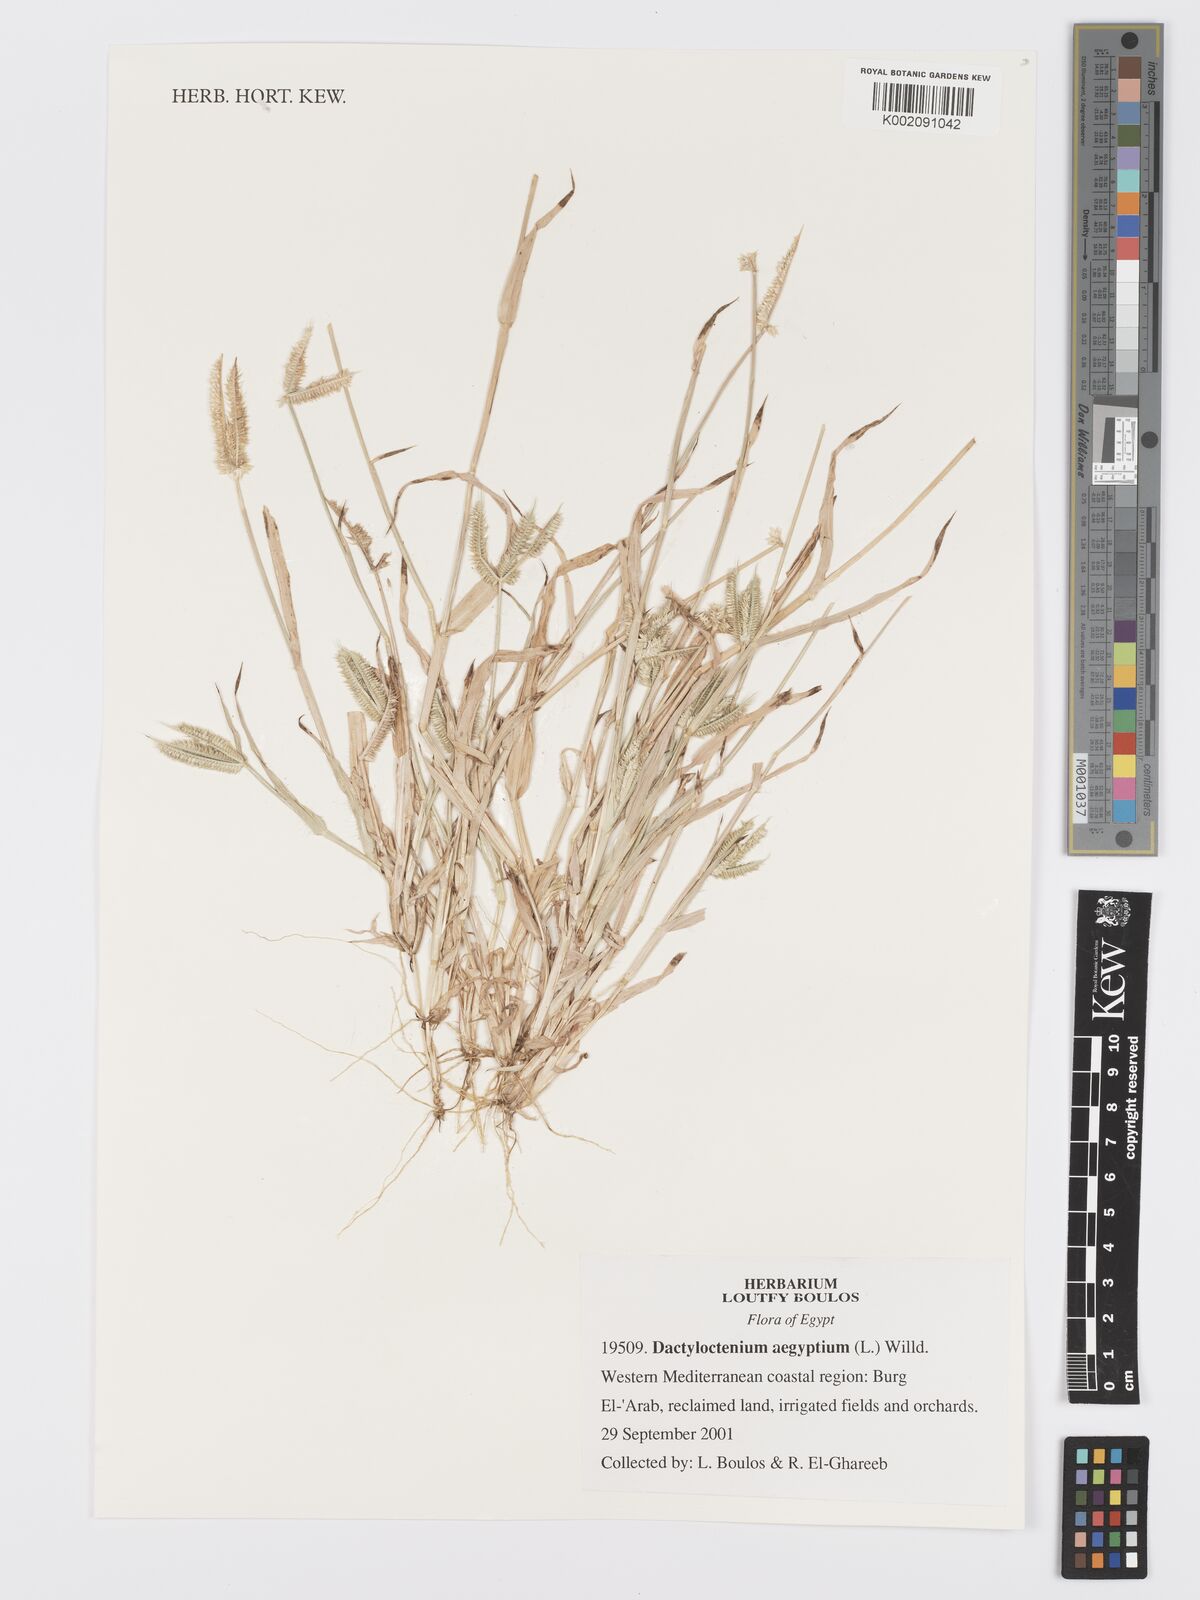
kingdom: Plantae
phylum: Tracheophyta
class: Liliopsida
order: Poales
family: Poaceae
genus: Dactyloctenium
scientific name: Dactyloctenium aegyptium
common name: Egyptian grass
